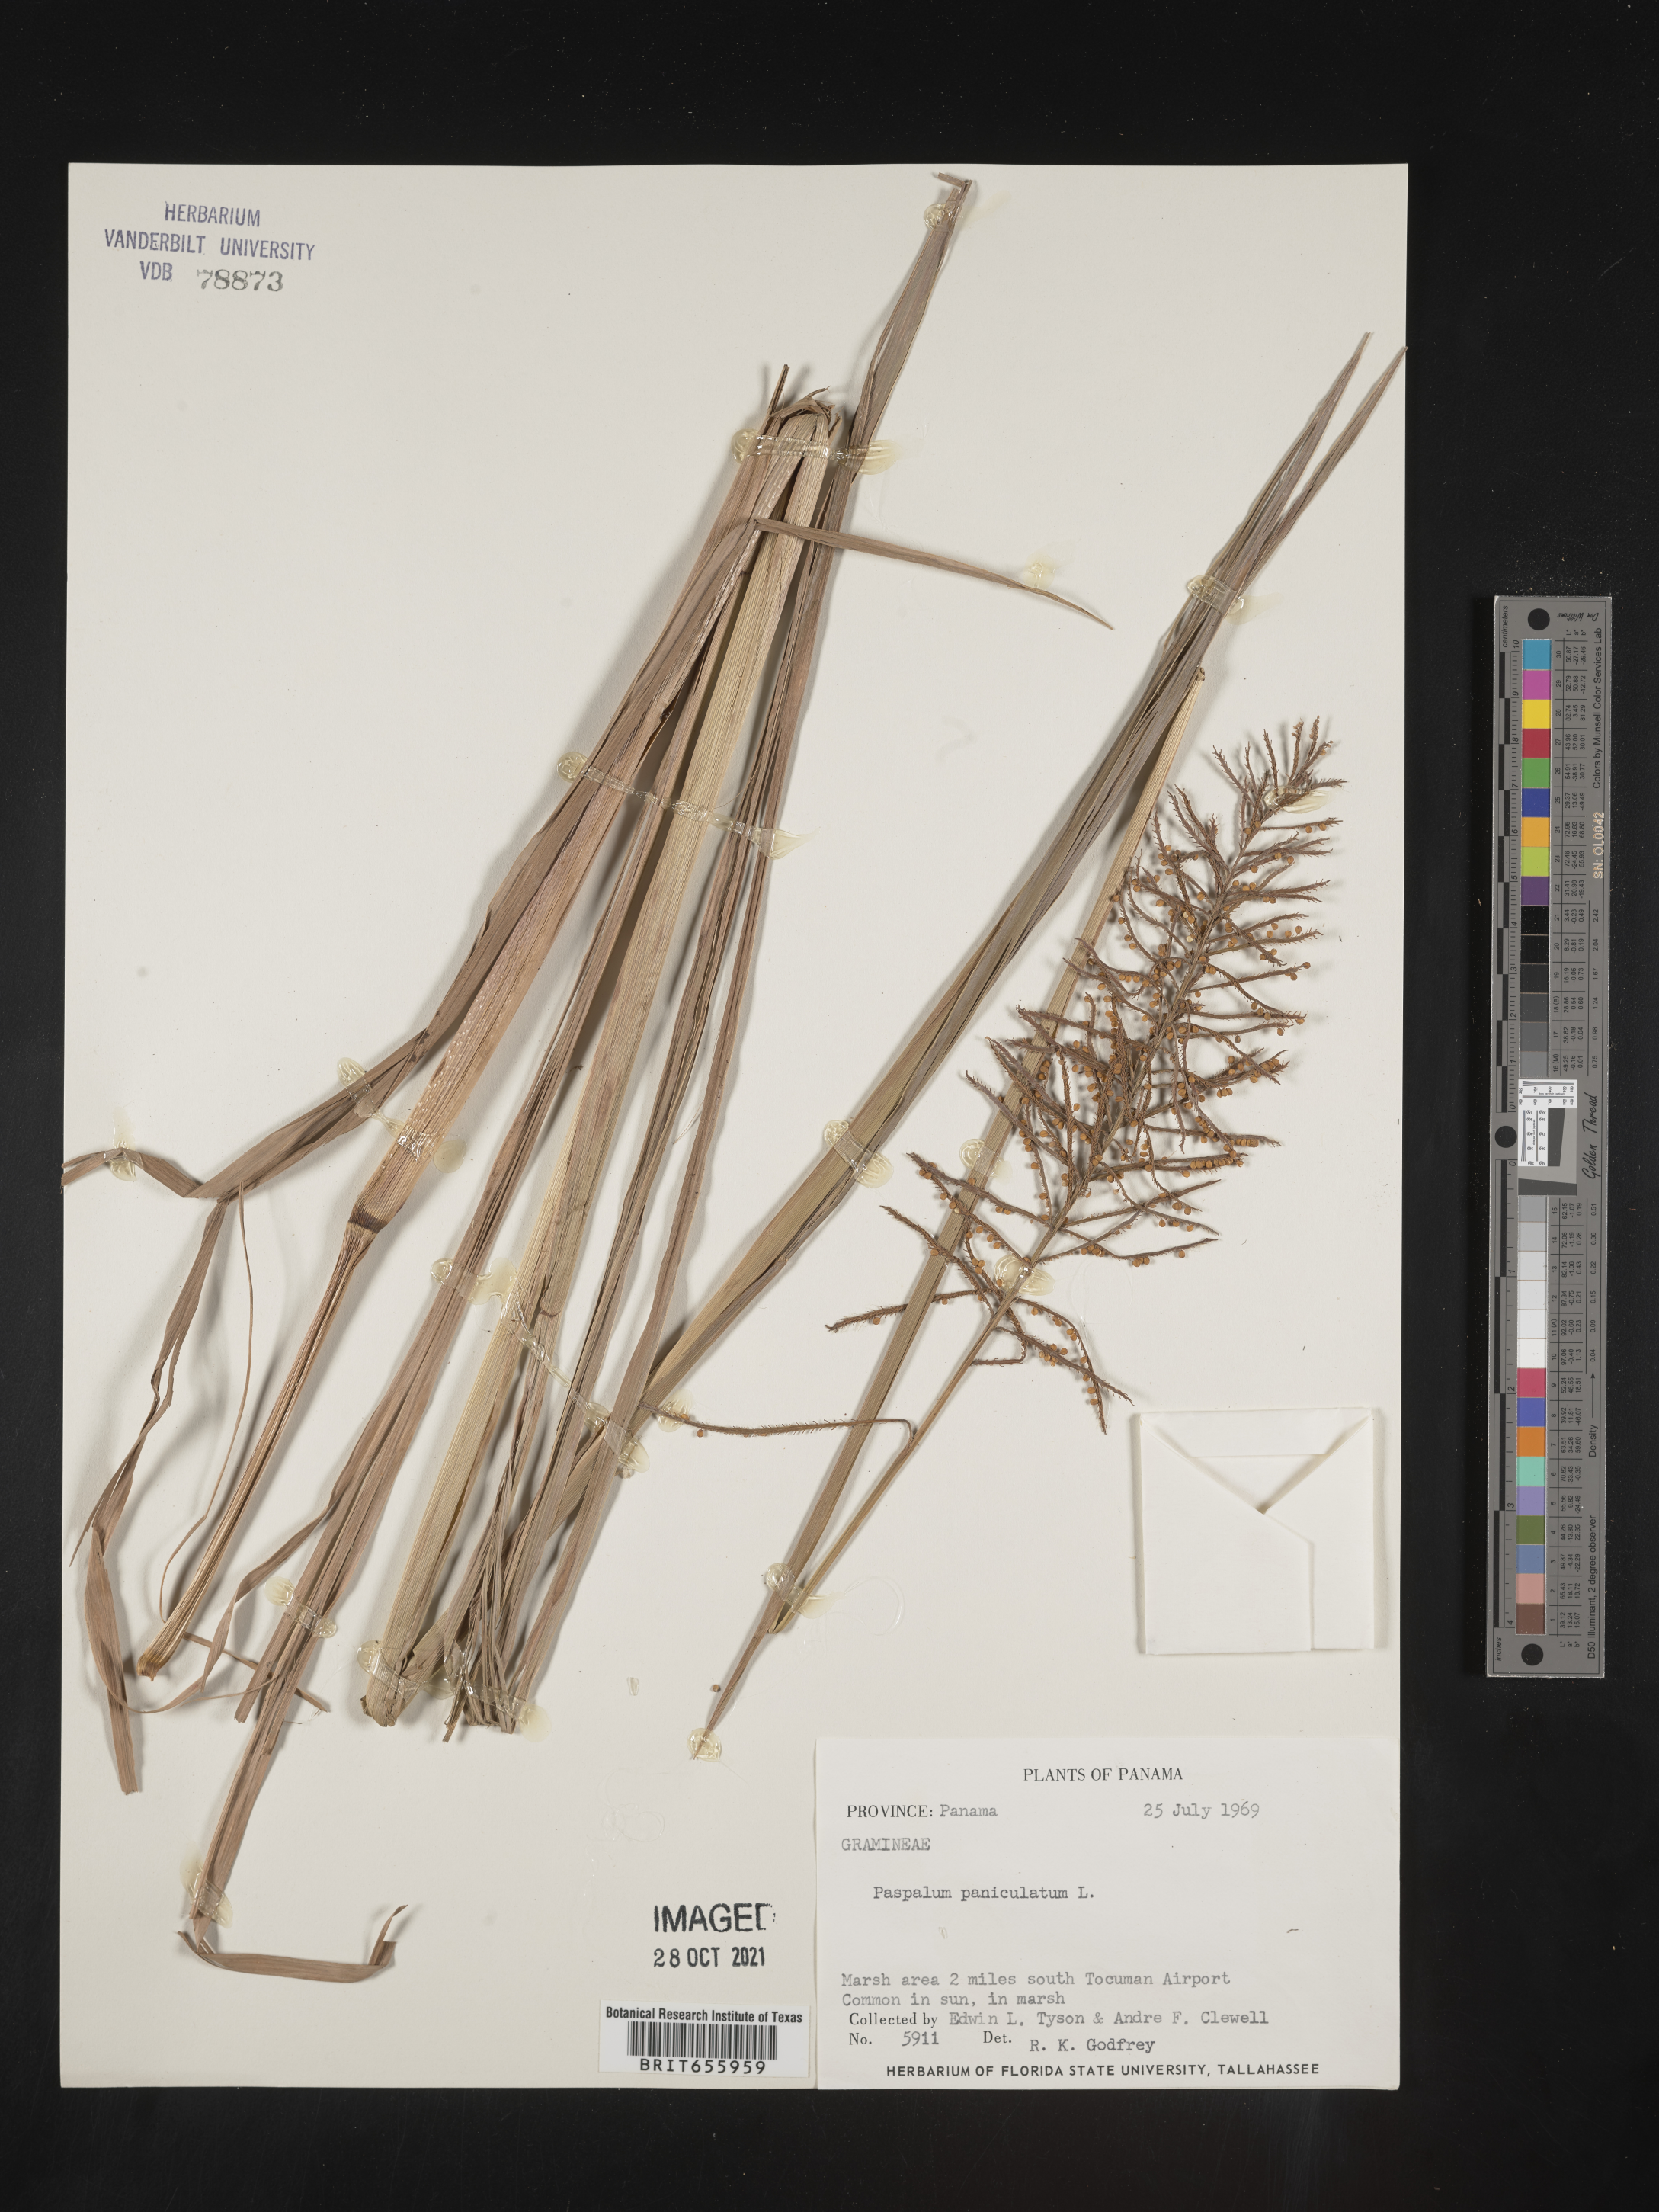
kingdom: Plantae
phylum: Tracheophyta
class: Liliopsida
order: Poales
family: Poaceae
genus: Paspalum
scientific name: Paspalum
